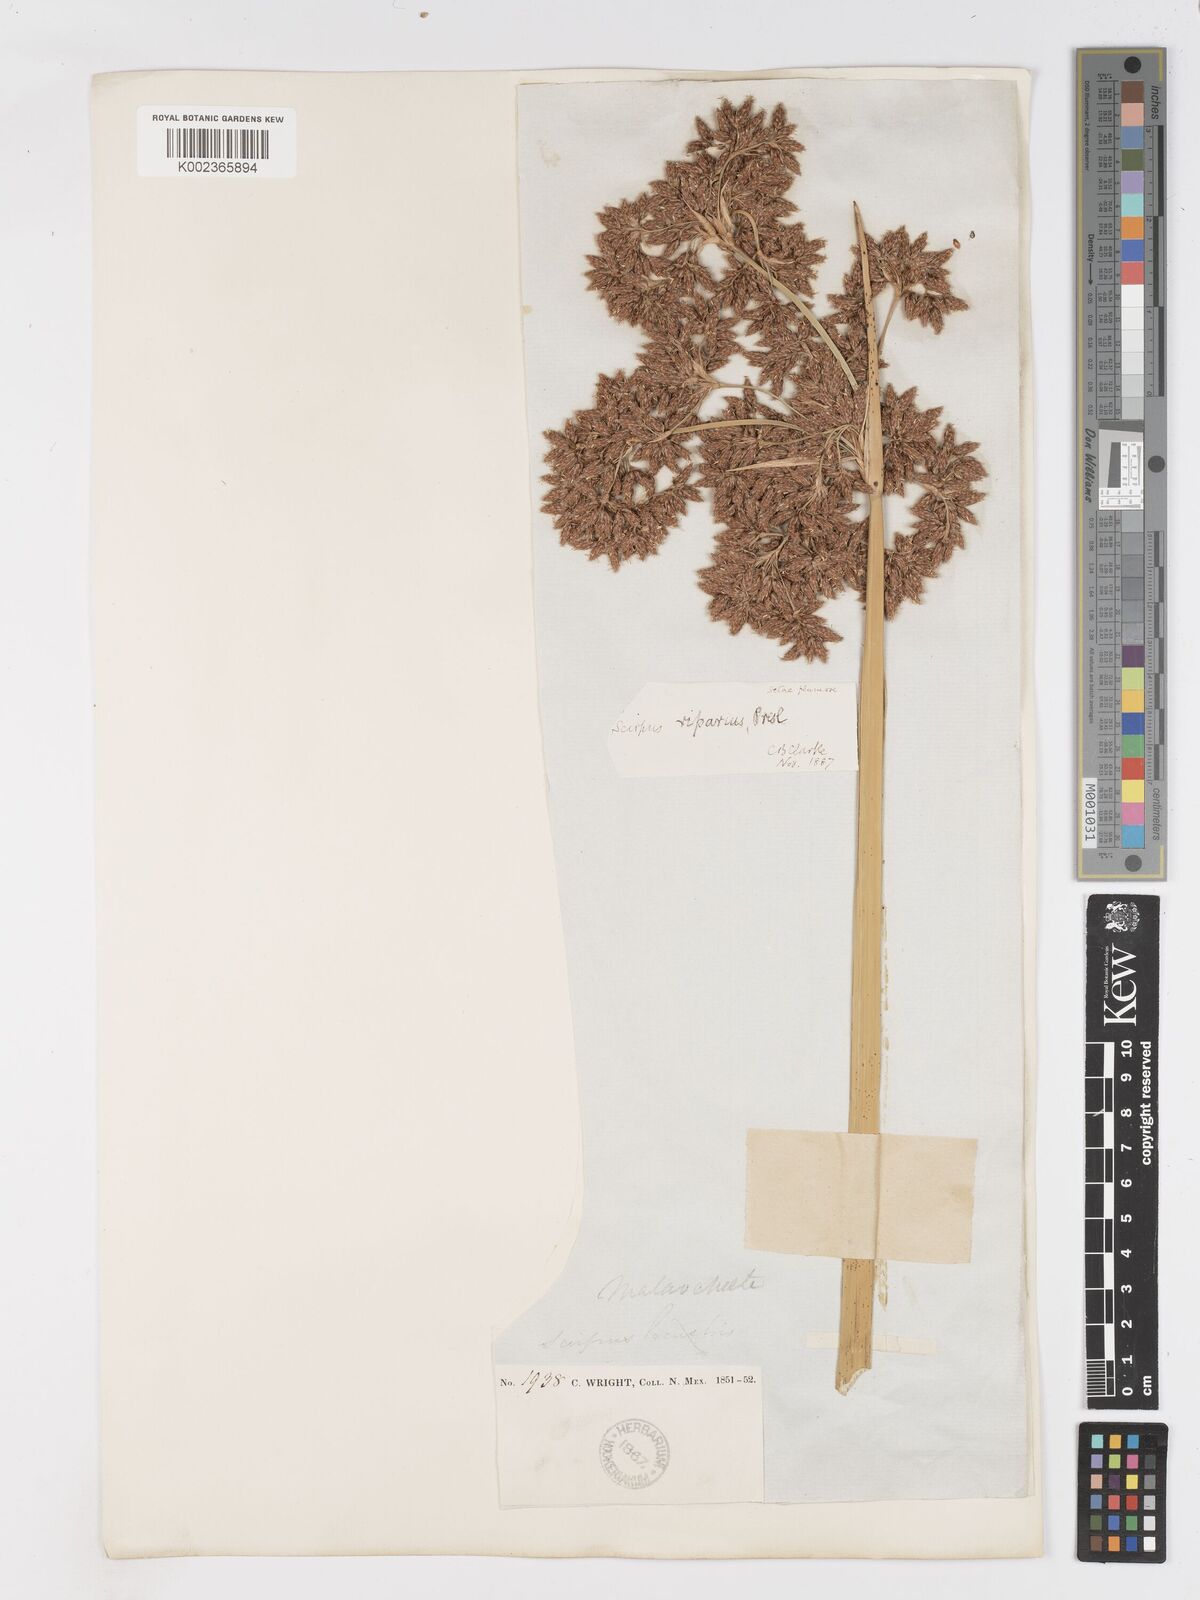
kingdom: Plantae
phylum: Tracheophyta
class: Liliopsida
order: Poales
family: Cyperaceae
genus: Schoenoplectus
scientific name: Schoenoplectus californicus
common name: California bulrush
